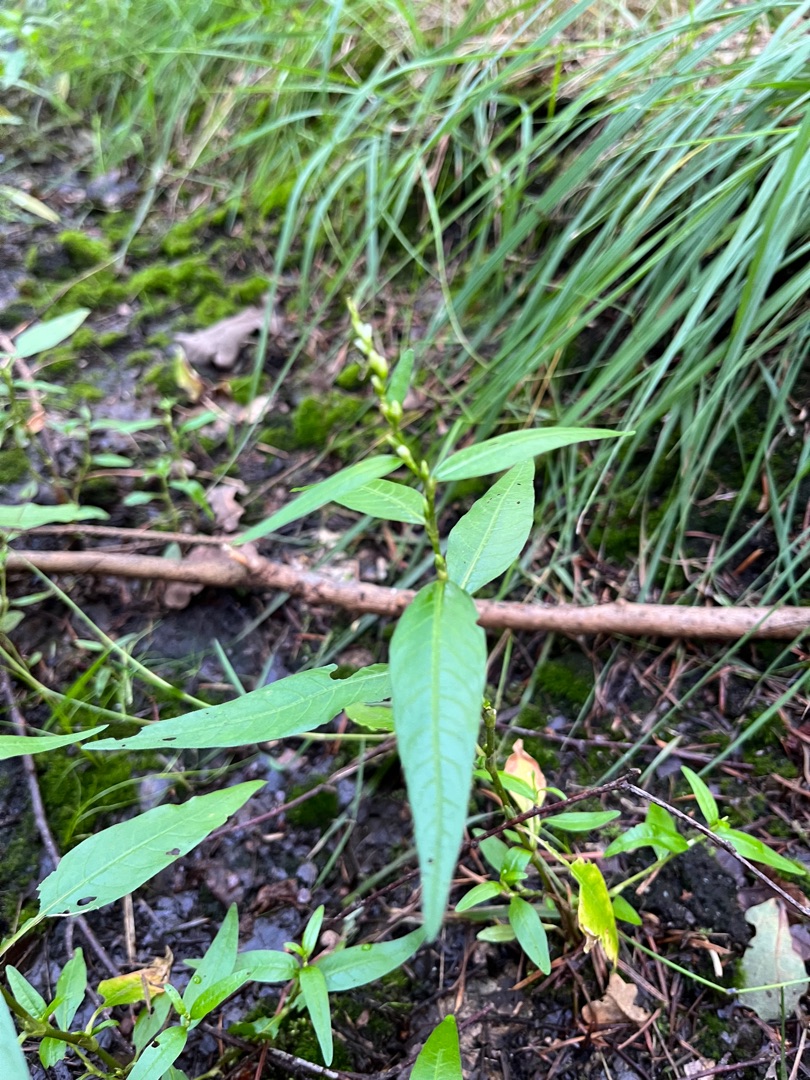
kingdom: Plantae
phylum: Tracheophyta
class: Magnoliopsida
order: Caryophyllales
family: Polygonaceae
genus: Persicaria
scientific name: Persicaria hydropiper
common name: Bidende pileurt
